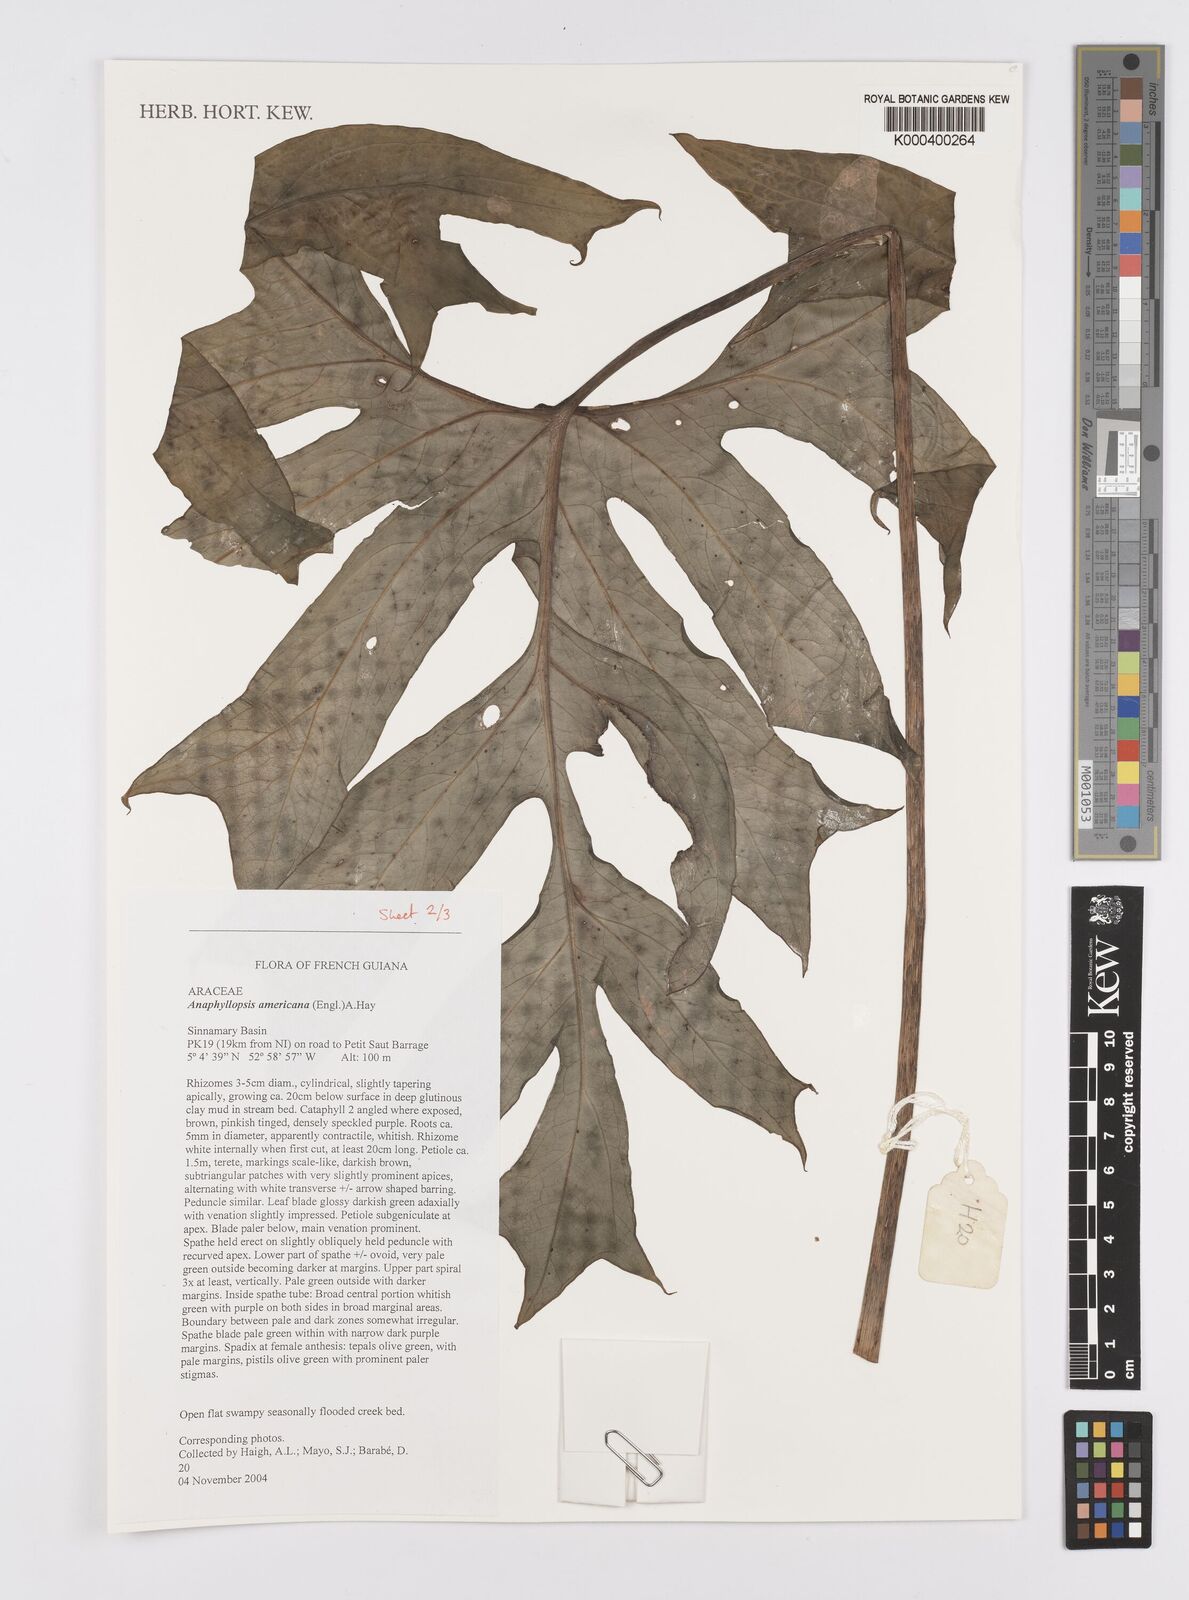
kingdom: Plantae
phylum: Tracheophyta
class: Liliopsida
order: Alismatales
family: Araceae
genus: Anaphyllopsis
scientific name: Anaphyllopsis americana
